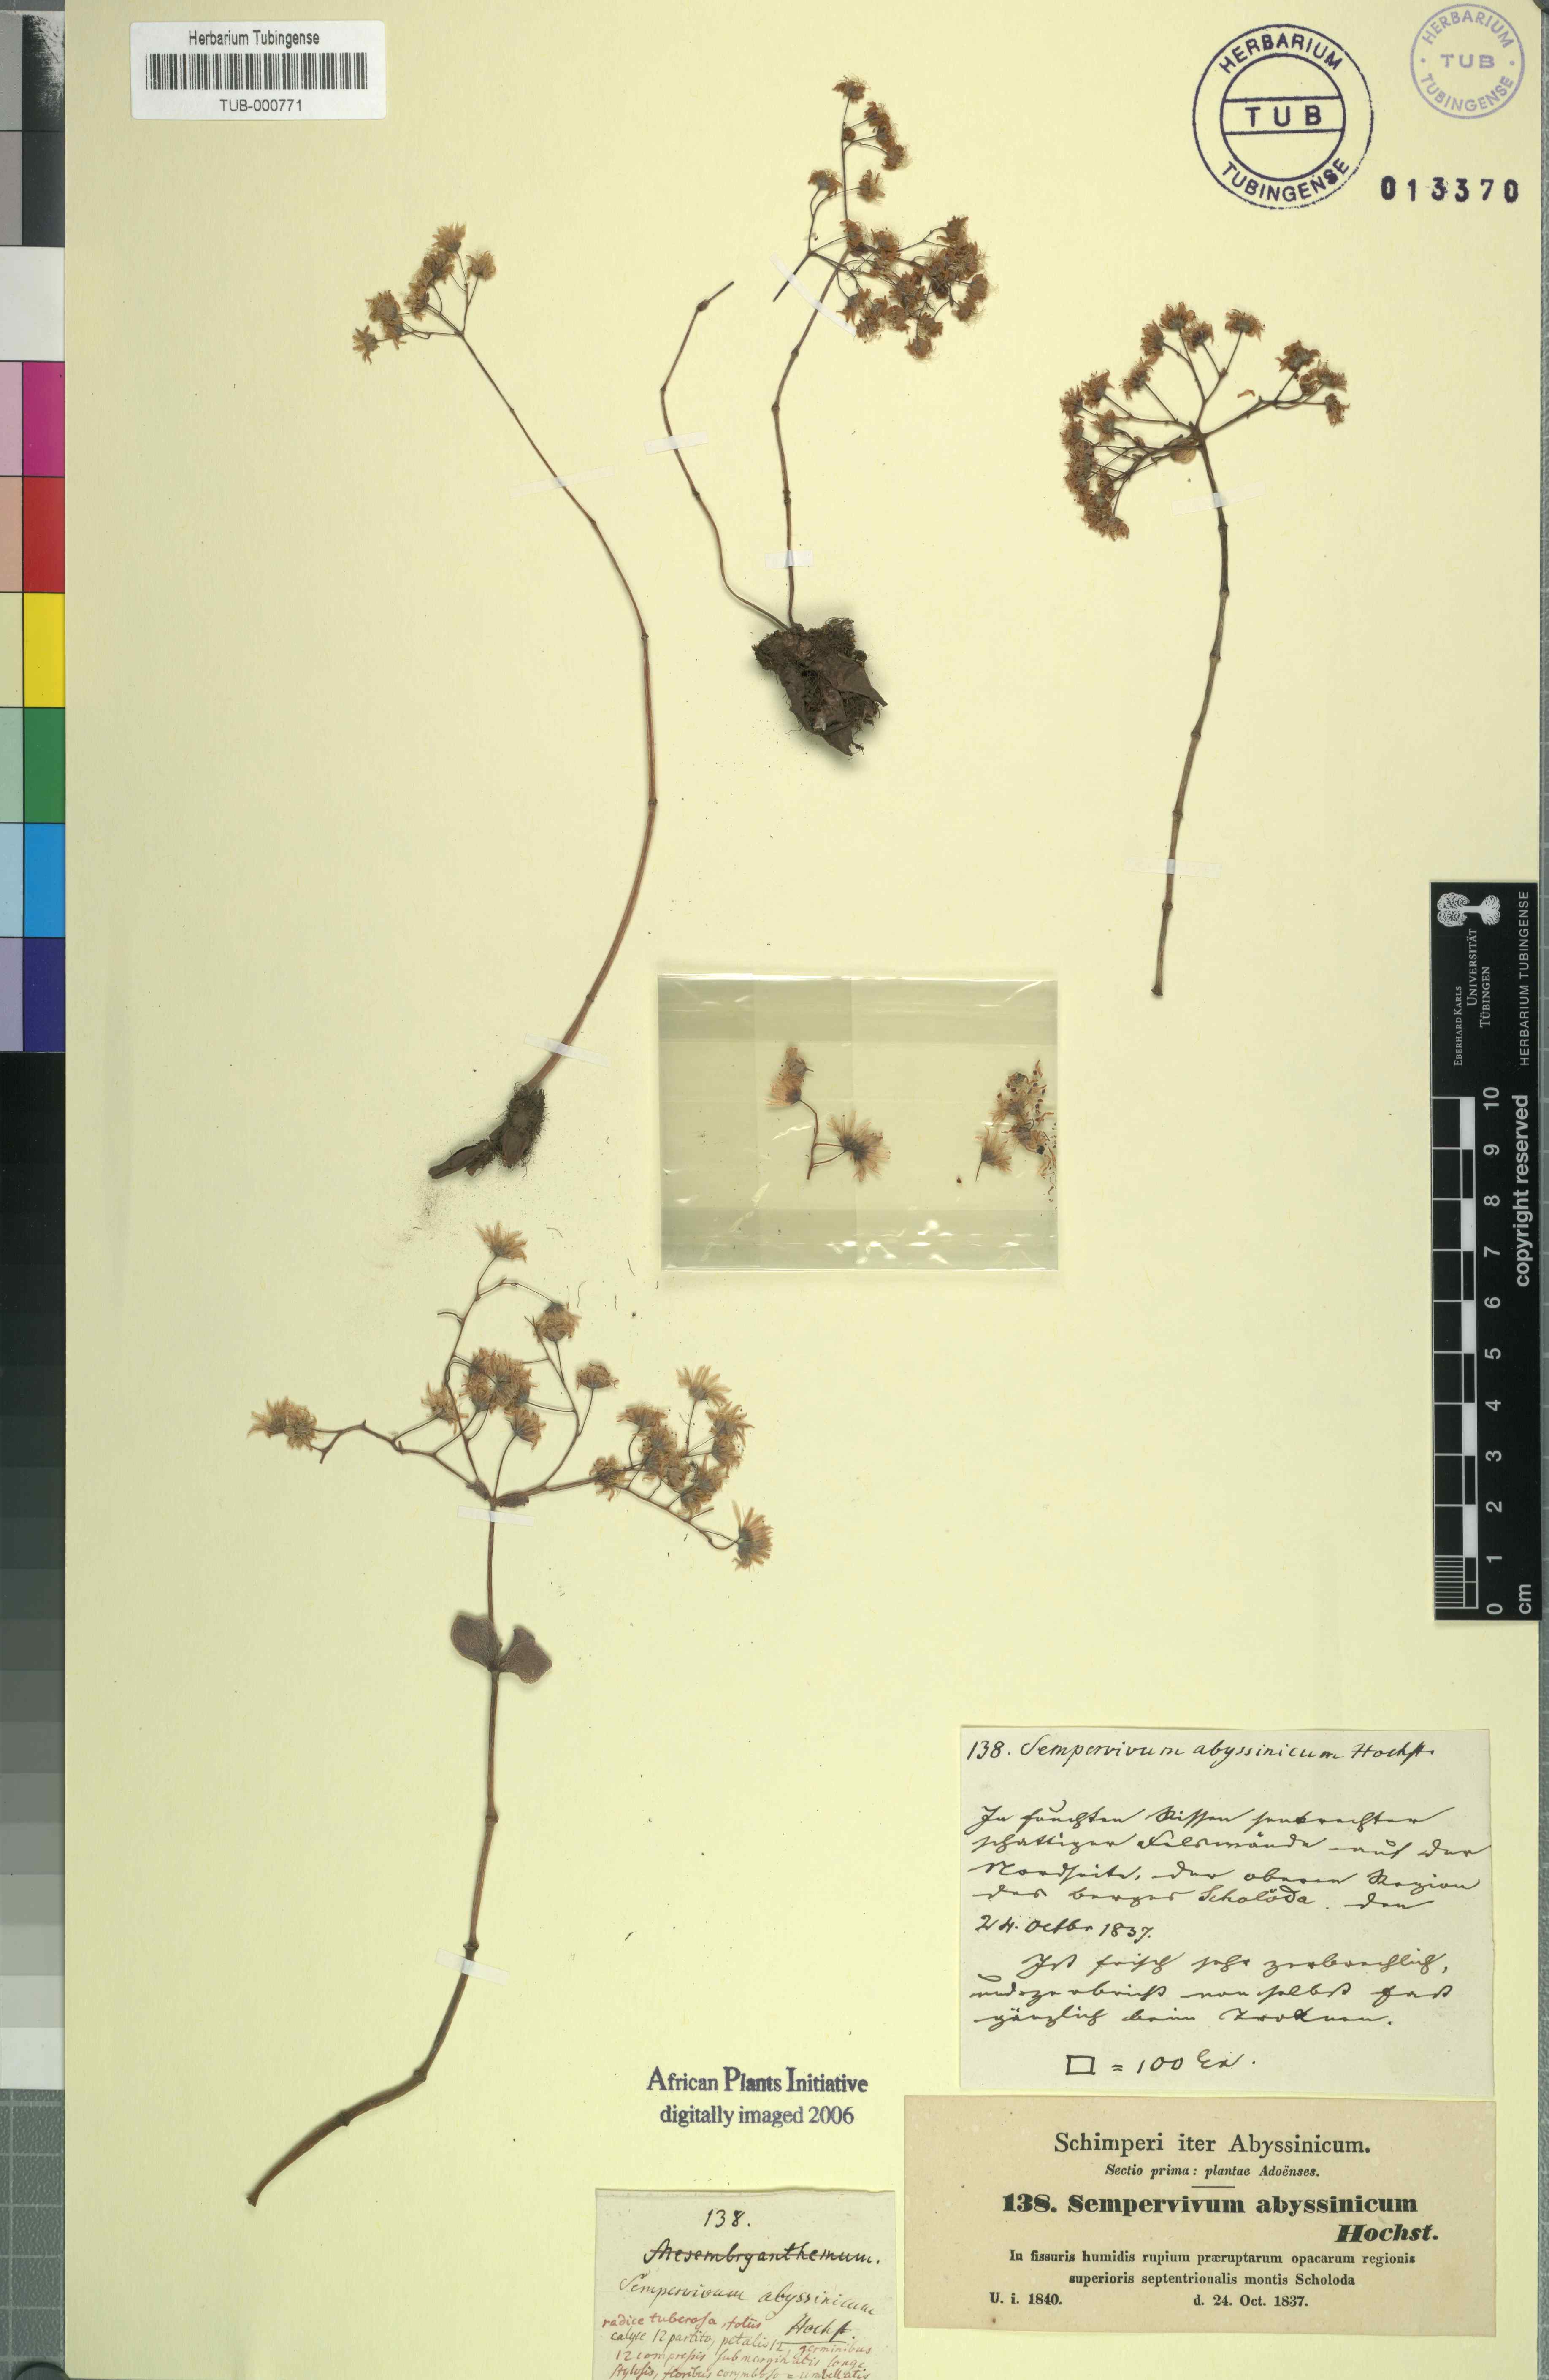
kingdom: Plantae
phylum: Tracheophyta
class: Magnoliopsida
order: Saxifragales
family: Crassulaceae
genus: Hypagophytum
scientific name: Hypagophytum abyssinicum
